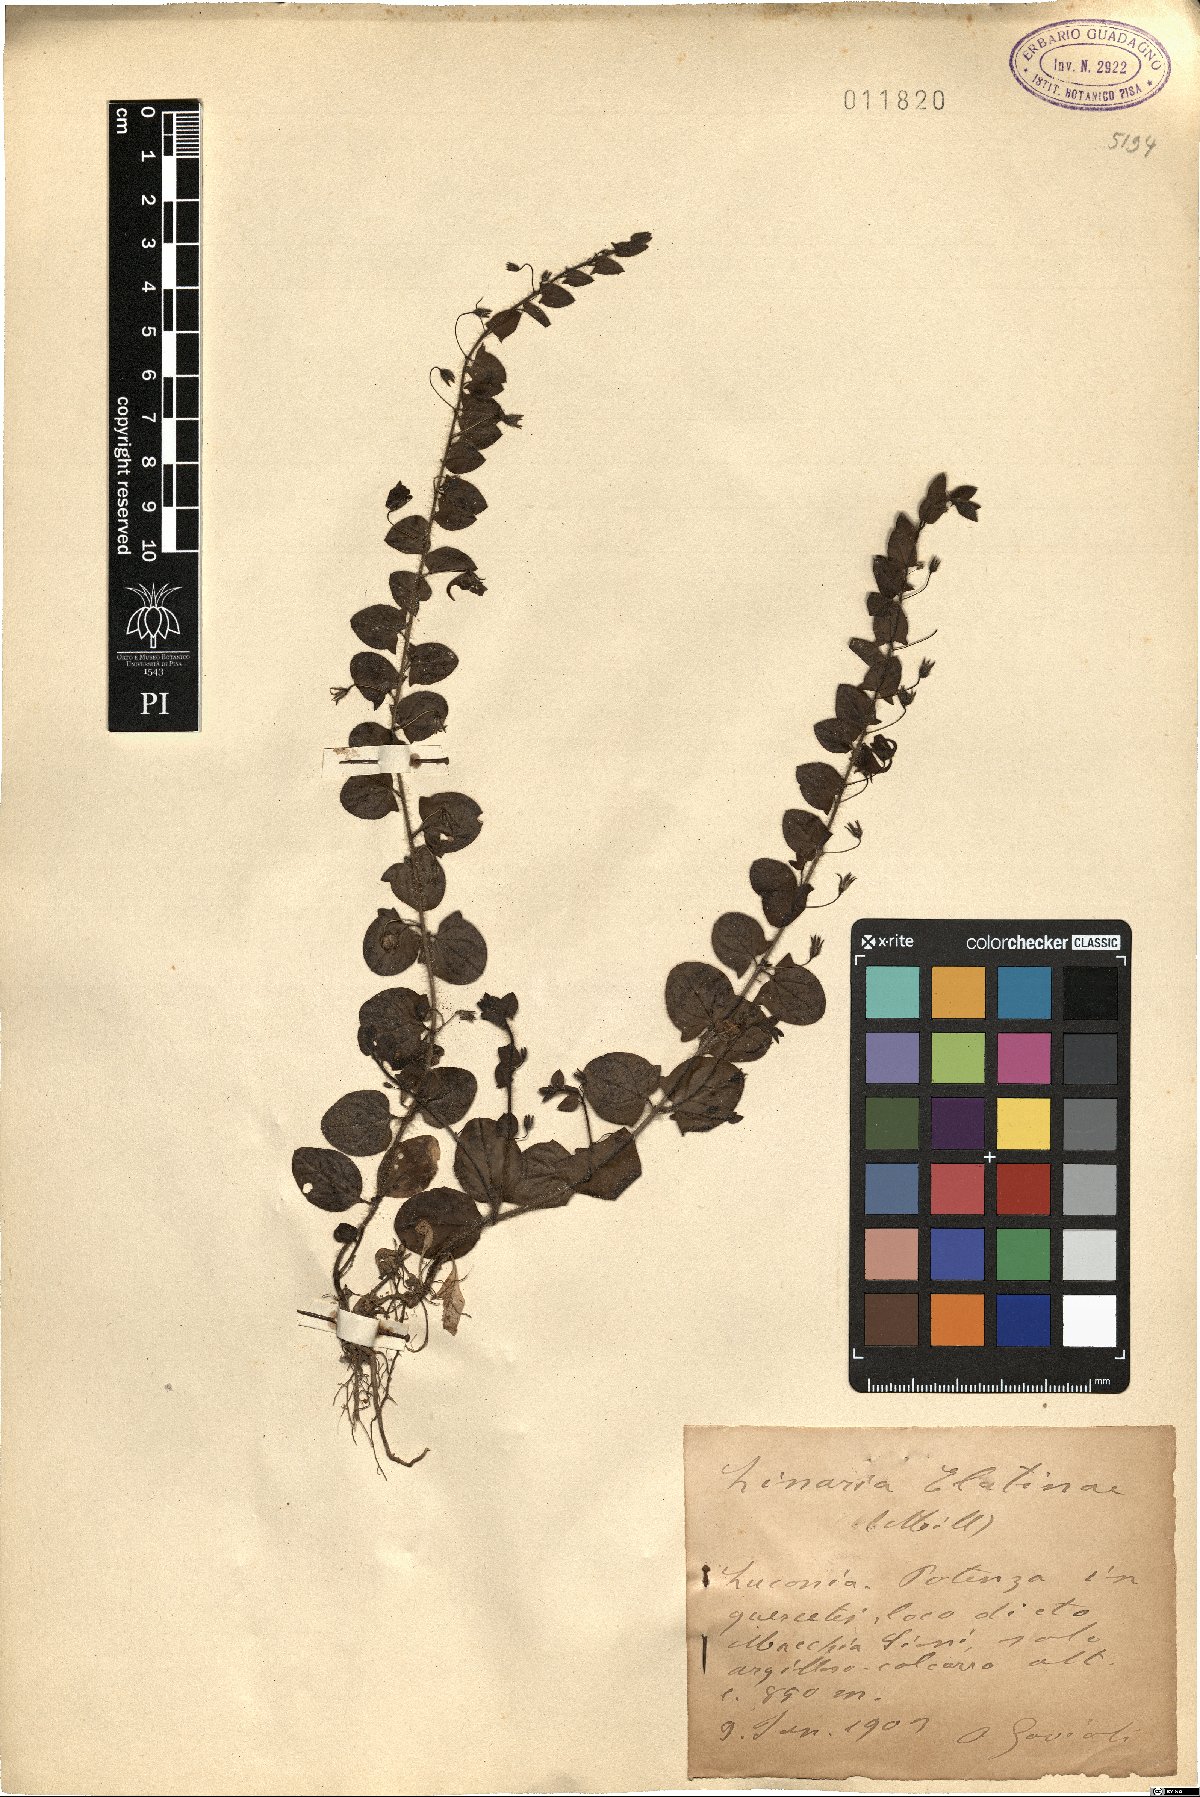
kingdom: Plantae
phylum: Tracheophyta
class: Magnoliopsida
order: Lamiales
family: Plantaginaceae
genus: Kickxia
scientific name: Kickxia elatine
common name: Sharp-leaved fluellen
